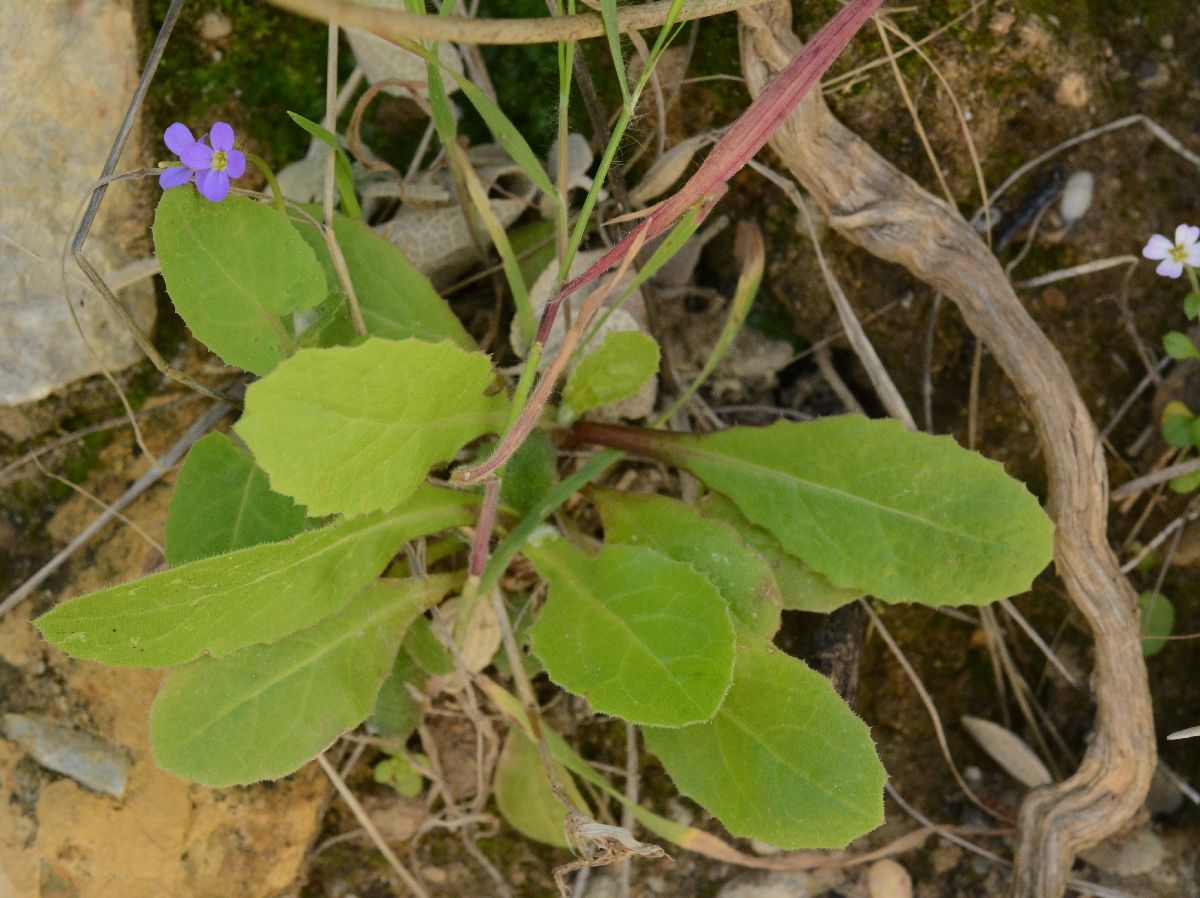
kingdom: Plantae
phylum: Tracheophyta
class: Magnoliopsida
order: Brassicales
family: Brassicaceae
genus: Arabis
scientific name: Arabis verna
